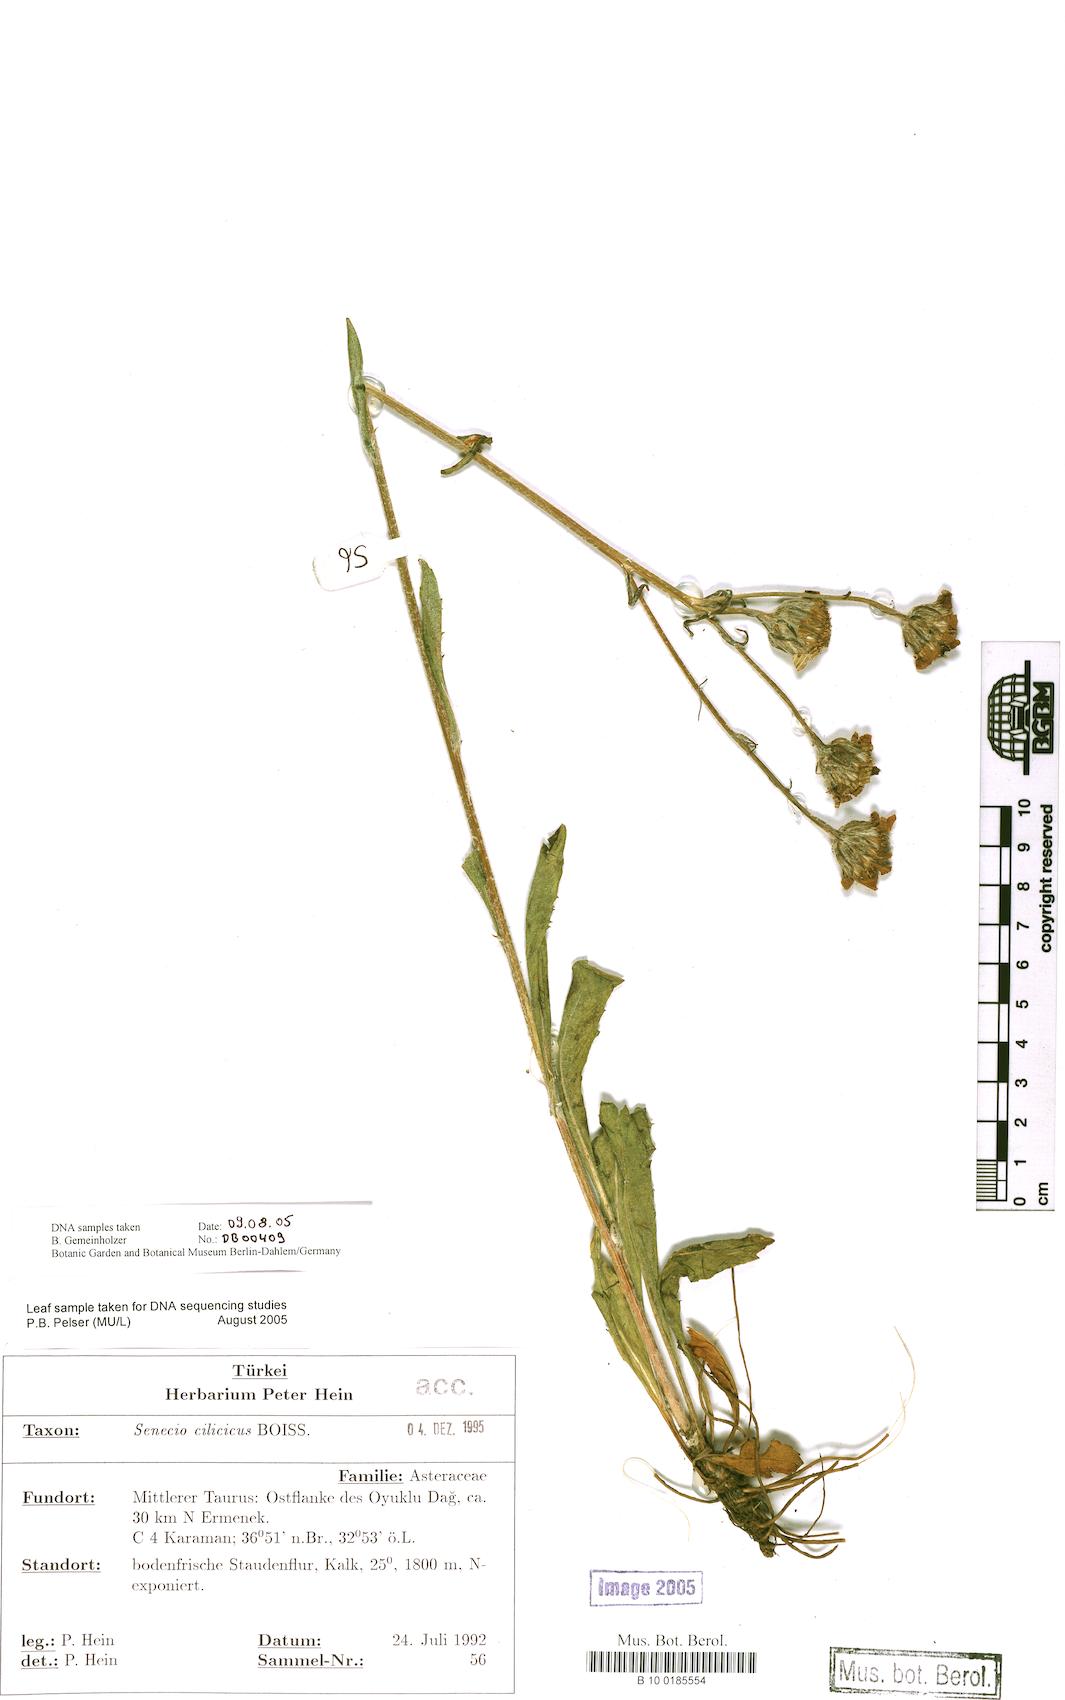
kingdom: Plantae
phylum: Tracheophyta
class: Magnoliopsida
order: Asterales
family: Asteraceae
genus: Jacobaea
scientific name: Jacobaea inops
